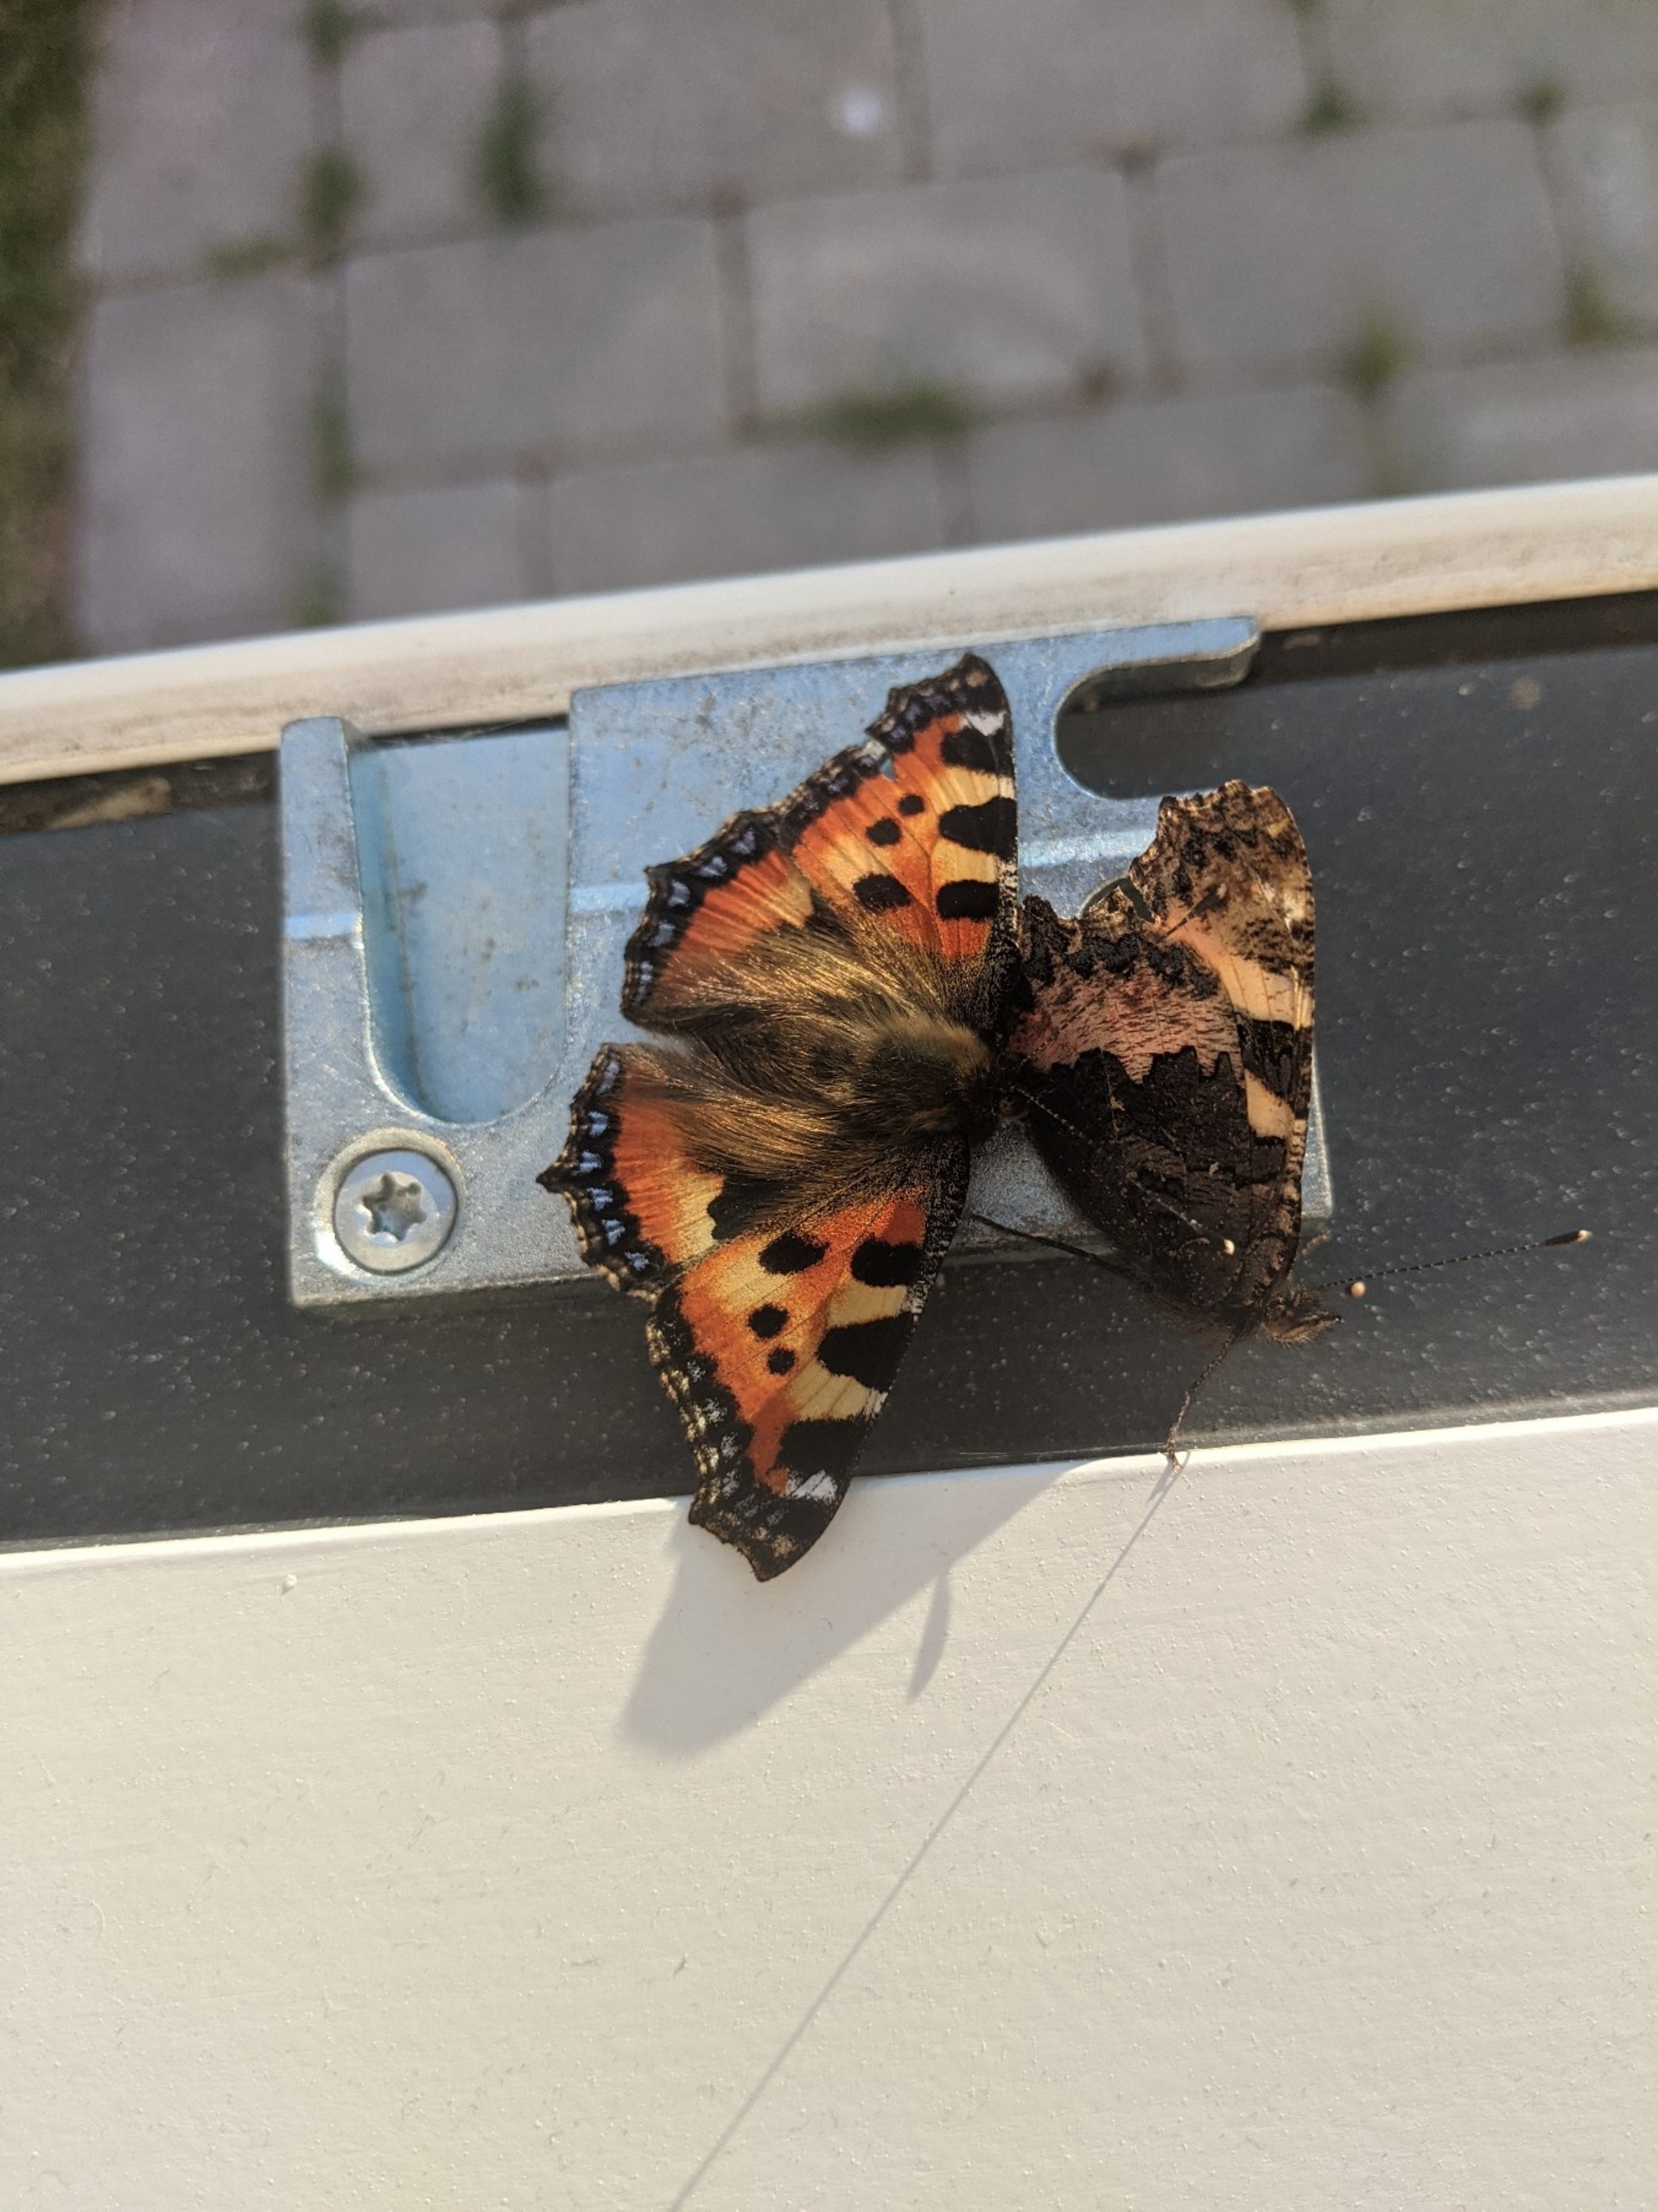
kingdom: Animalia
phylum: Arthropoda
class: Insecta
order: Lepidoptera
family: Nymphalidae
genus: Aglais
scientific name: Aglais urticae
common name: Nældens takvinge
